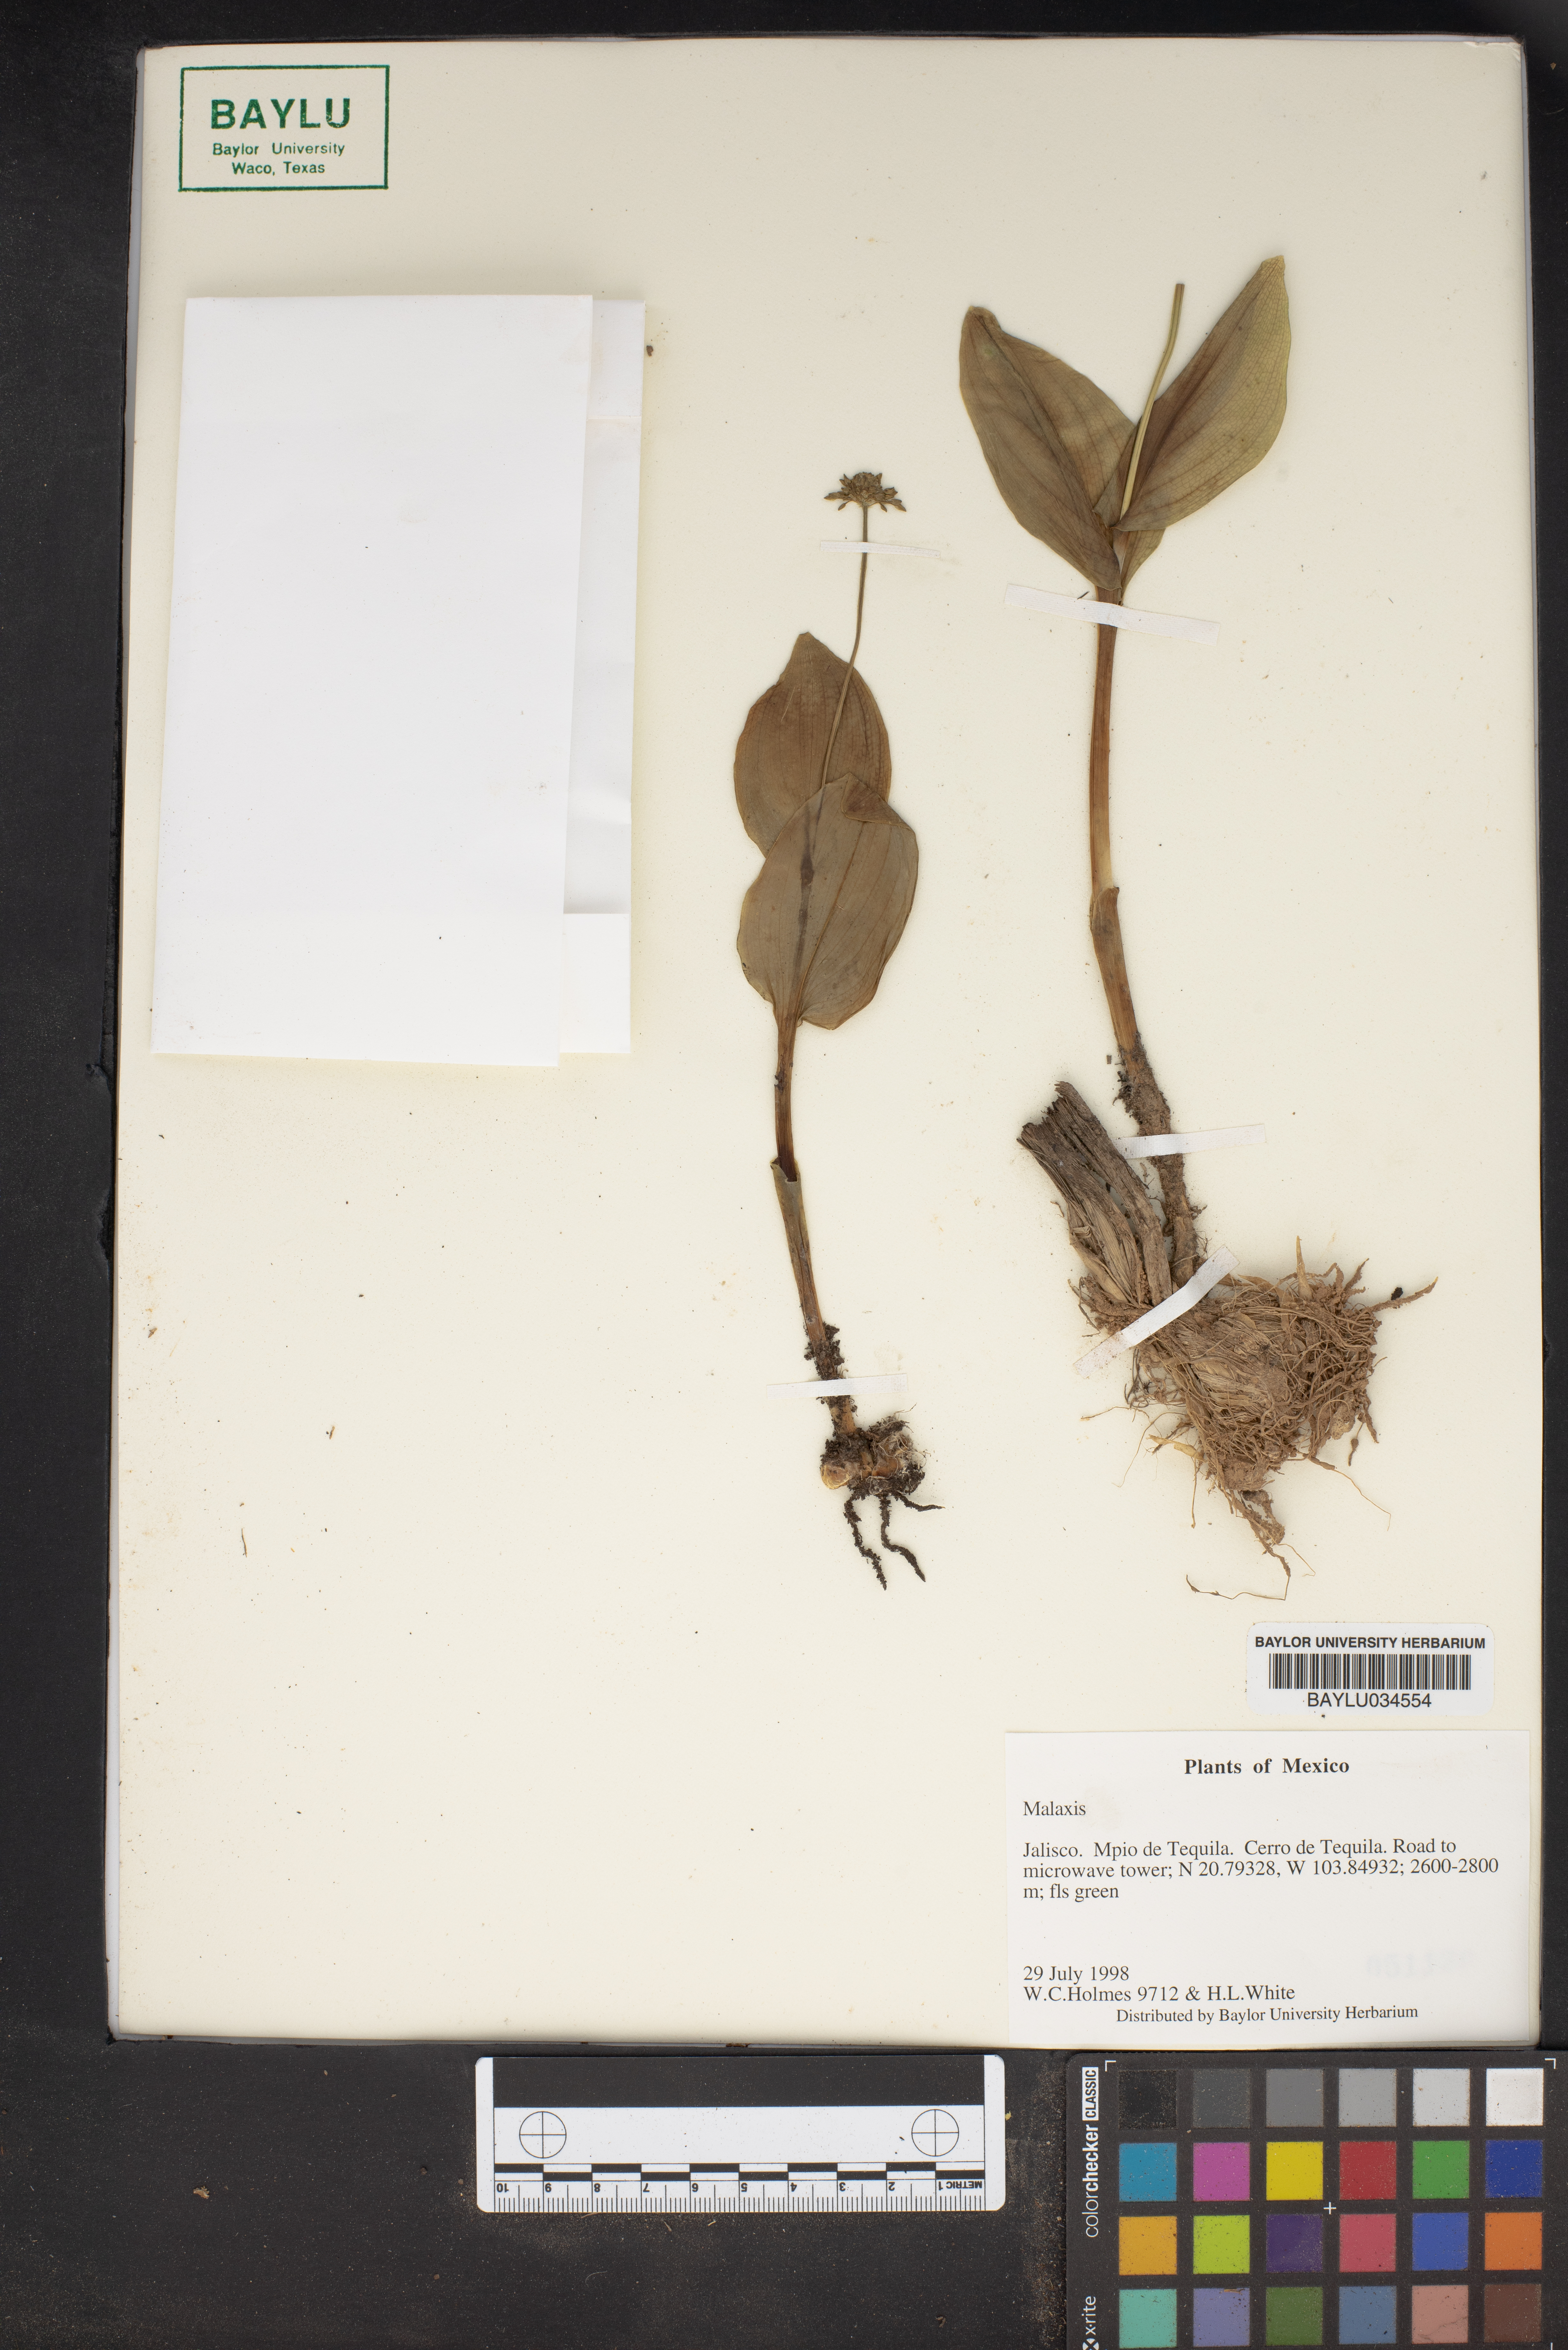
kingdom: Plantae
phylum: Tracheophyta
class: Liliopsida
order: Asparagales
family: Orchidaceae
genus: Malaxis
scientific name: Malaxis
